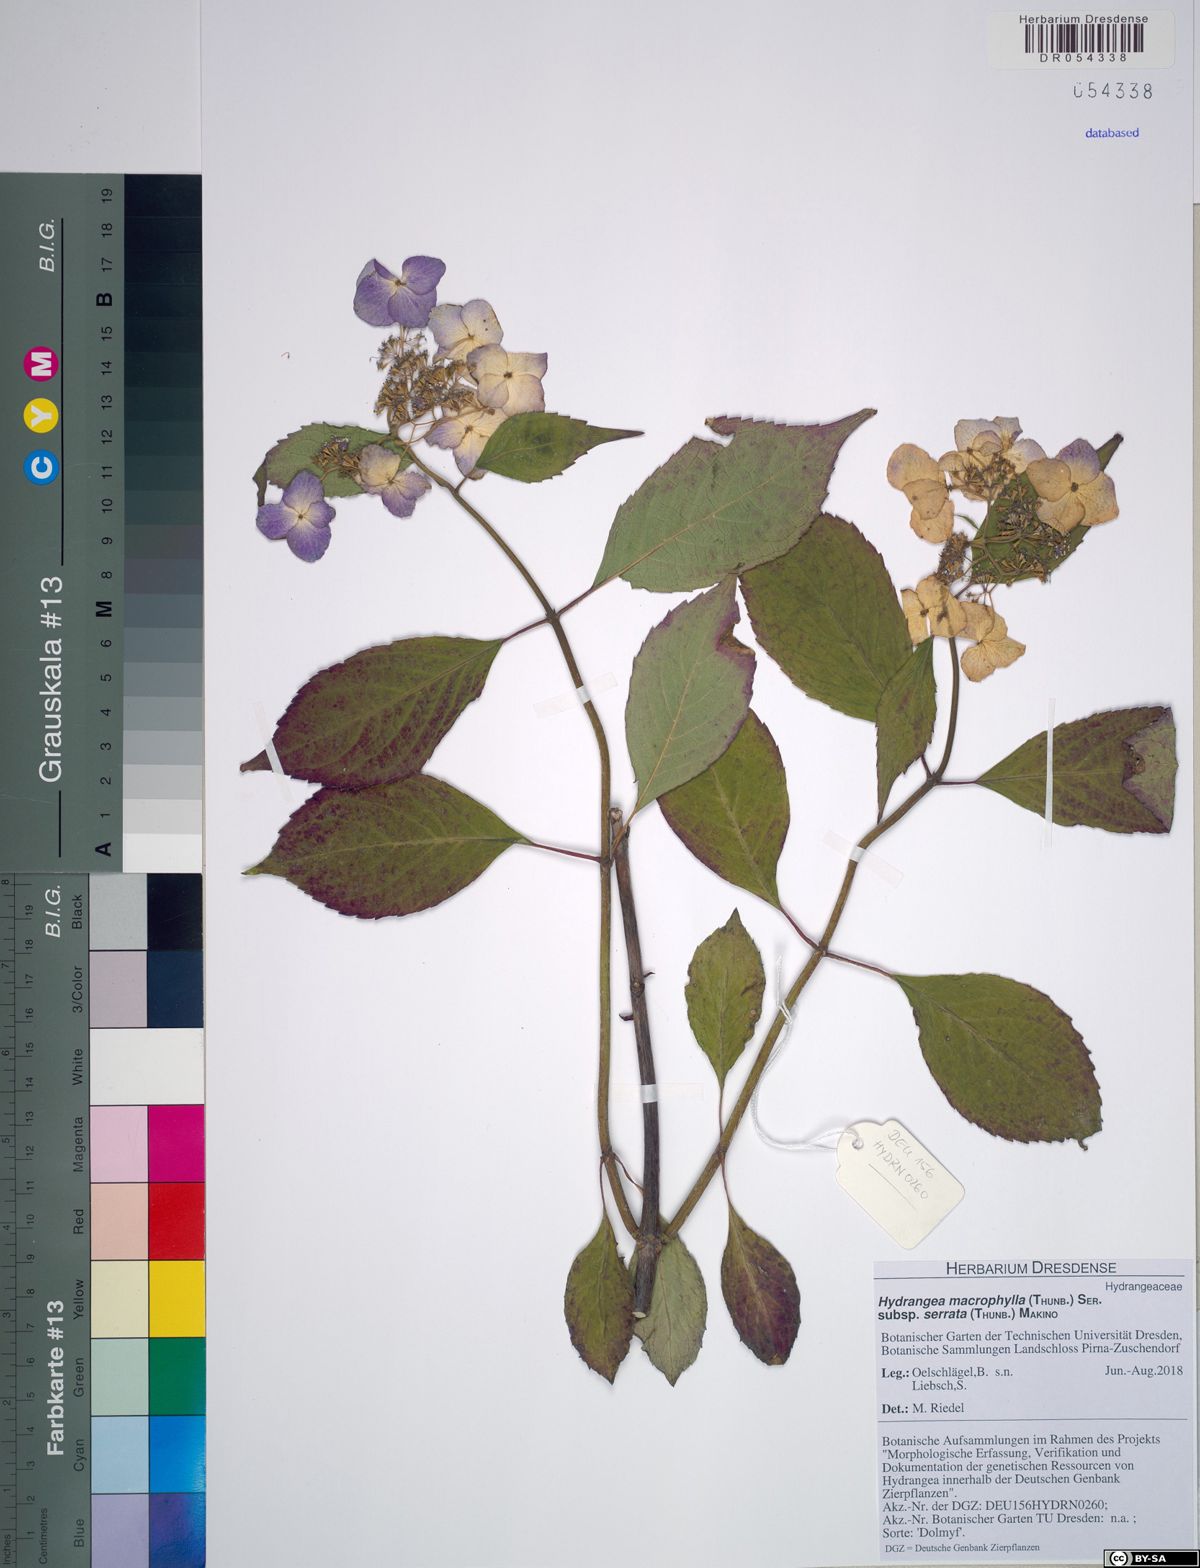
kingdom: Plantae
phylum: Tracheophyta
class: Magnoliopsida
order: Cornales
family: Hydrangeaceae
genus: Hydrangea
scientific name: Hydrangea serrata
